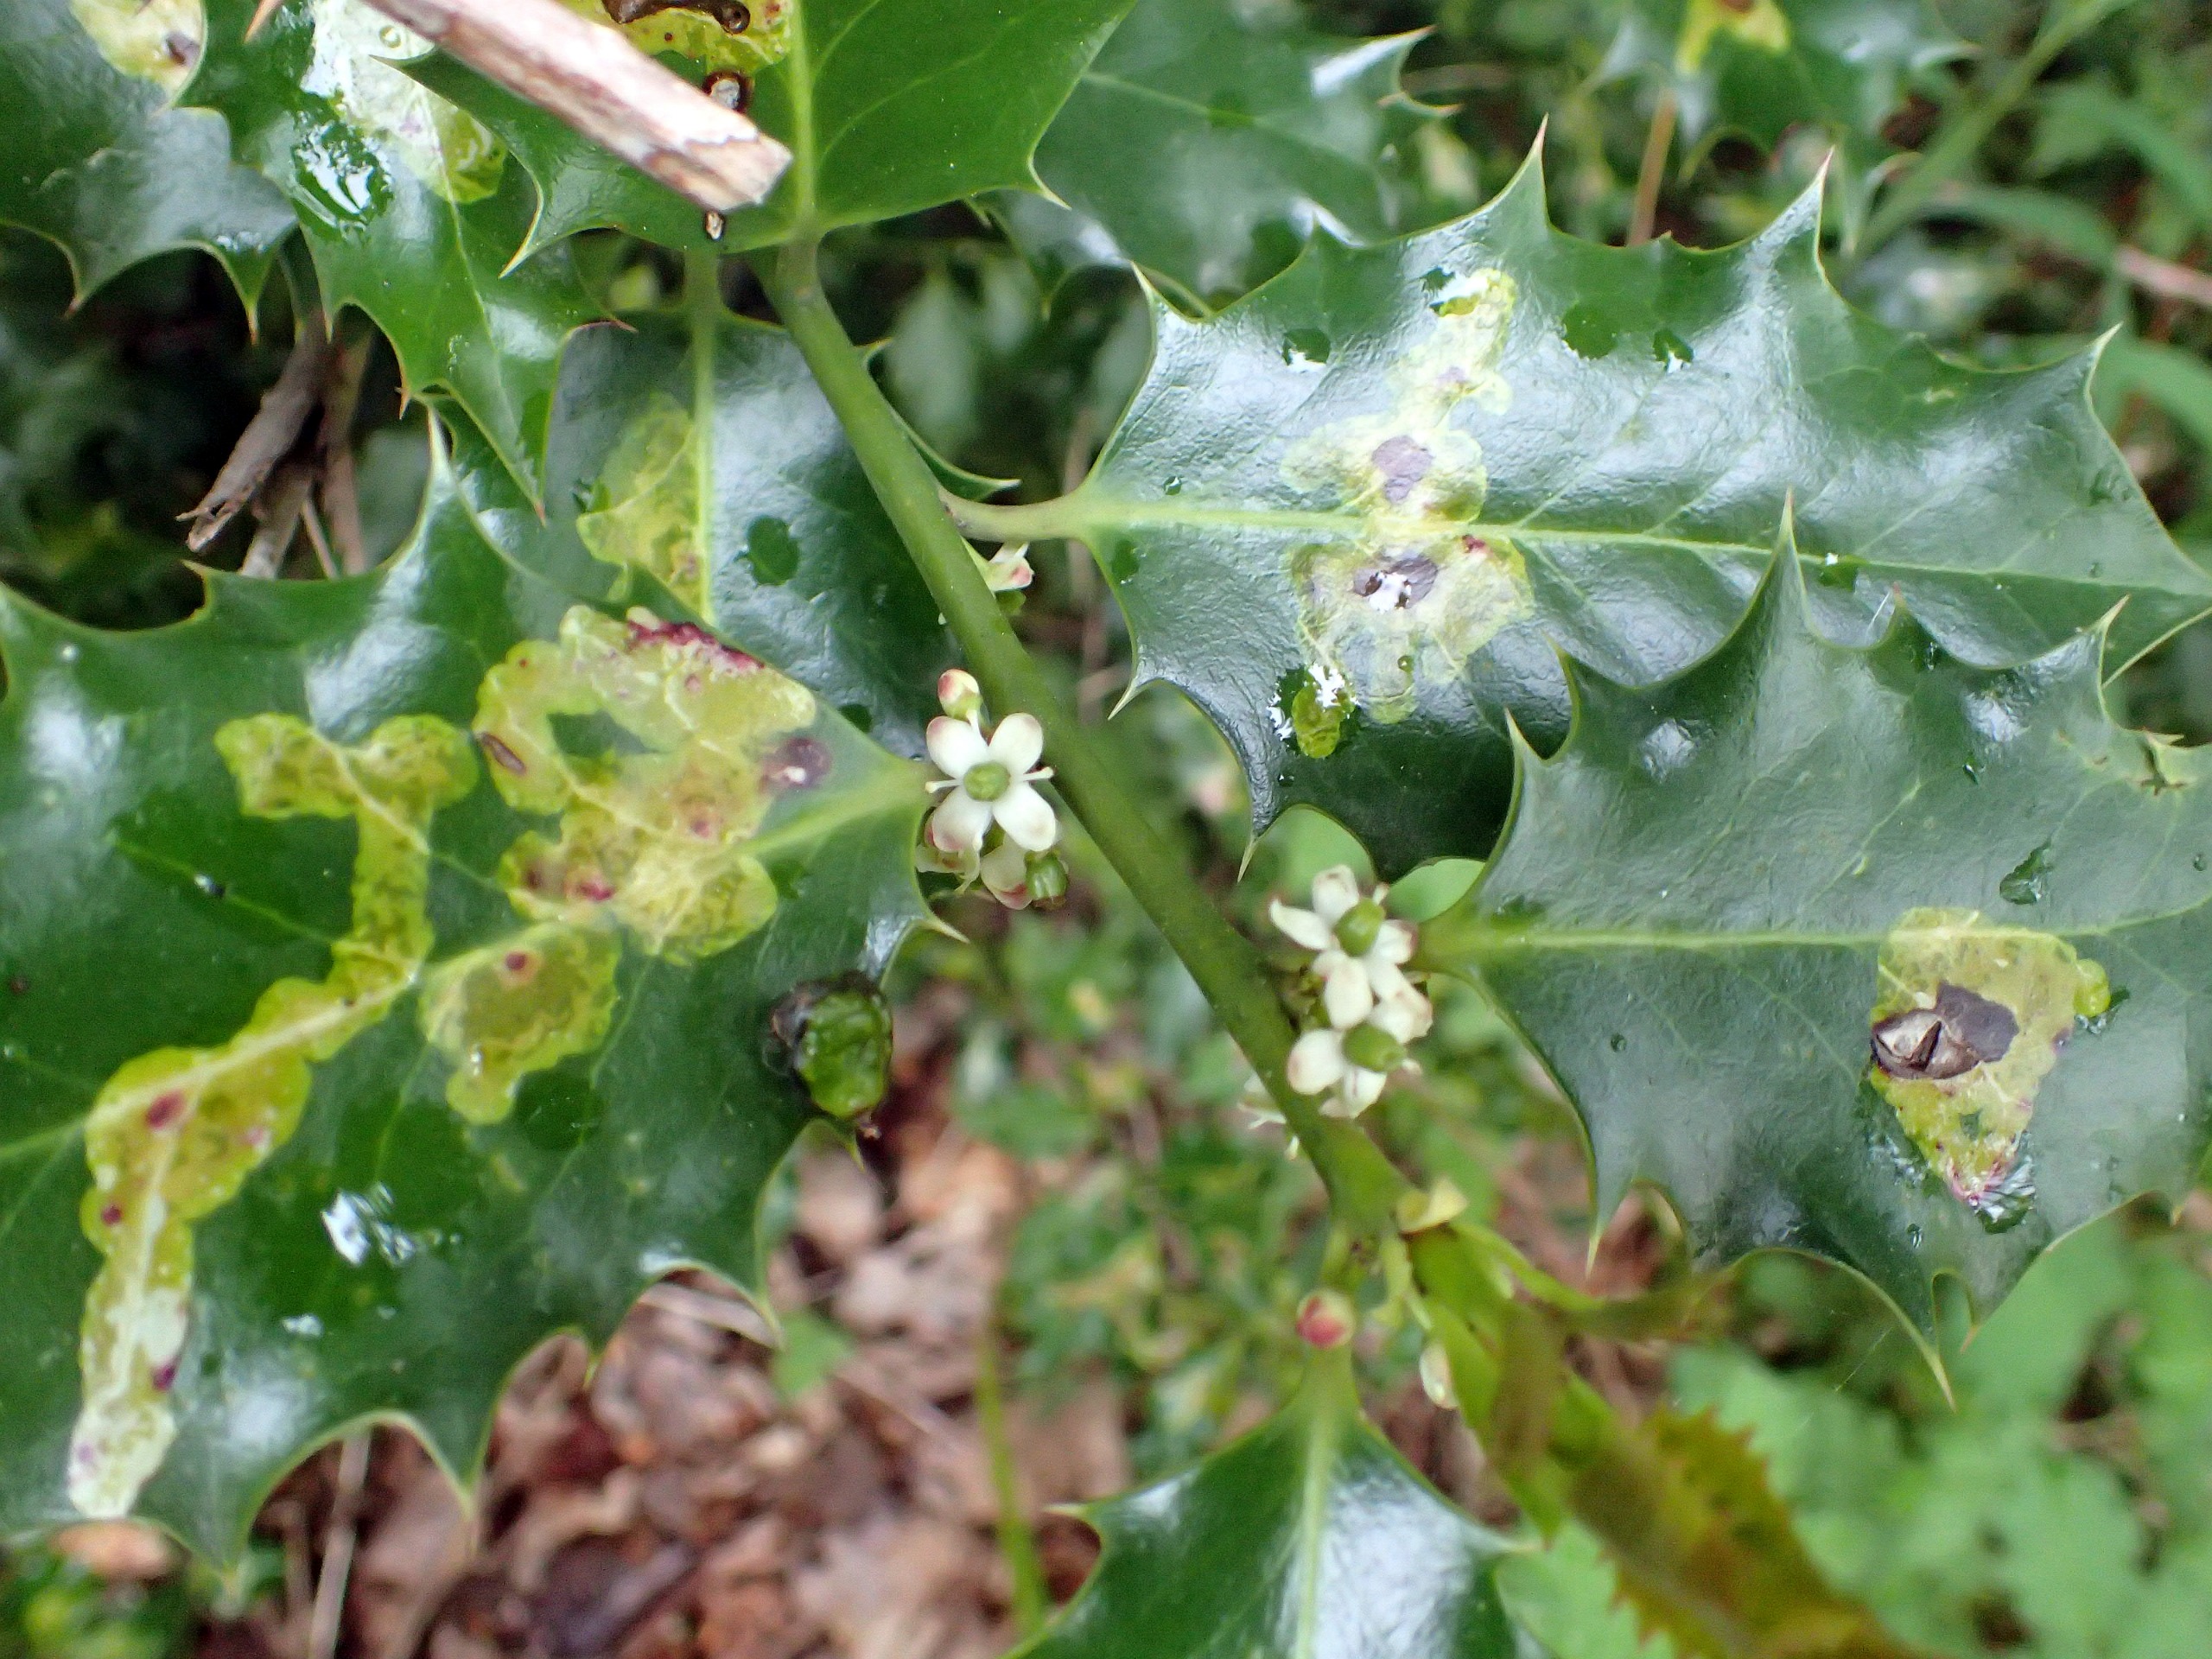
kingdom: Plantae
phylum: Tracheophyta
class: Magnoliopsida
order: Aquifoliales
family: Aquifoliaceae
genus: Ilex
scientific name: Ilex aquifolium
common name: Kristtorn
